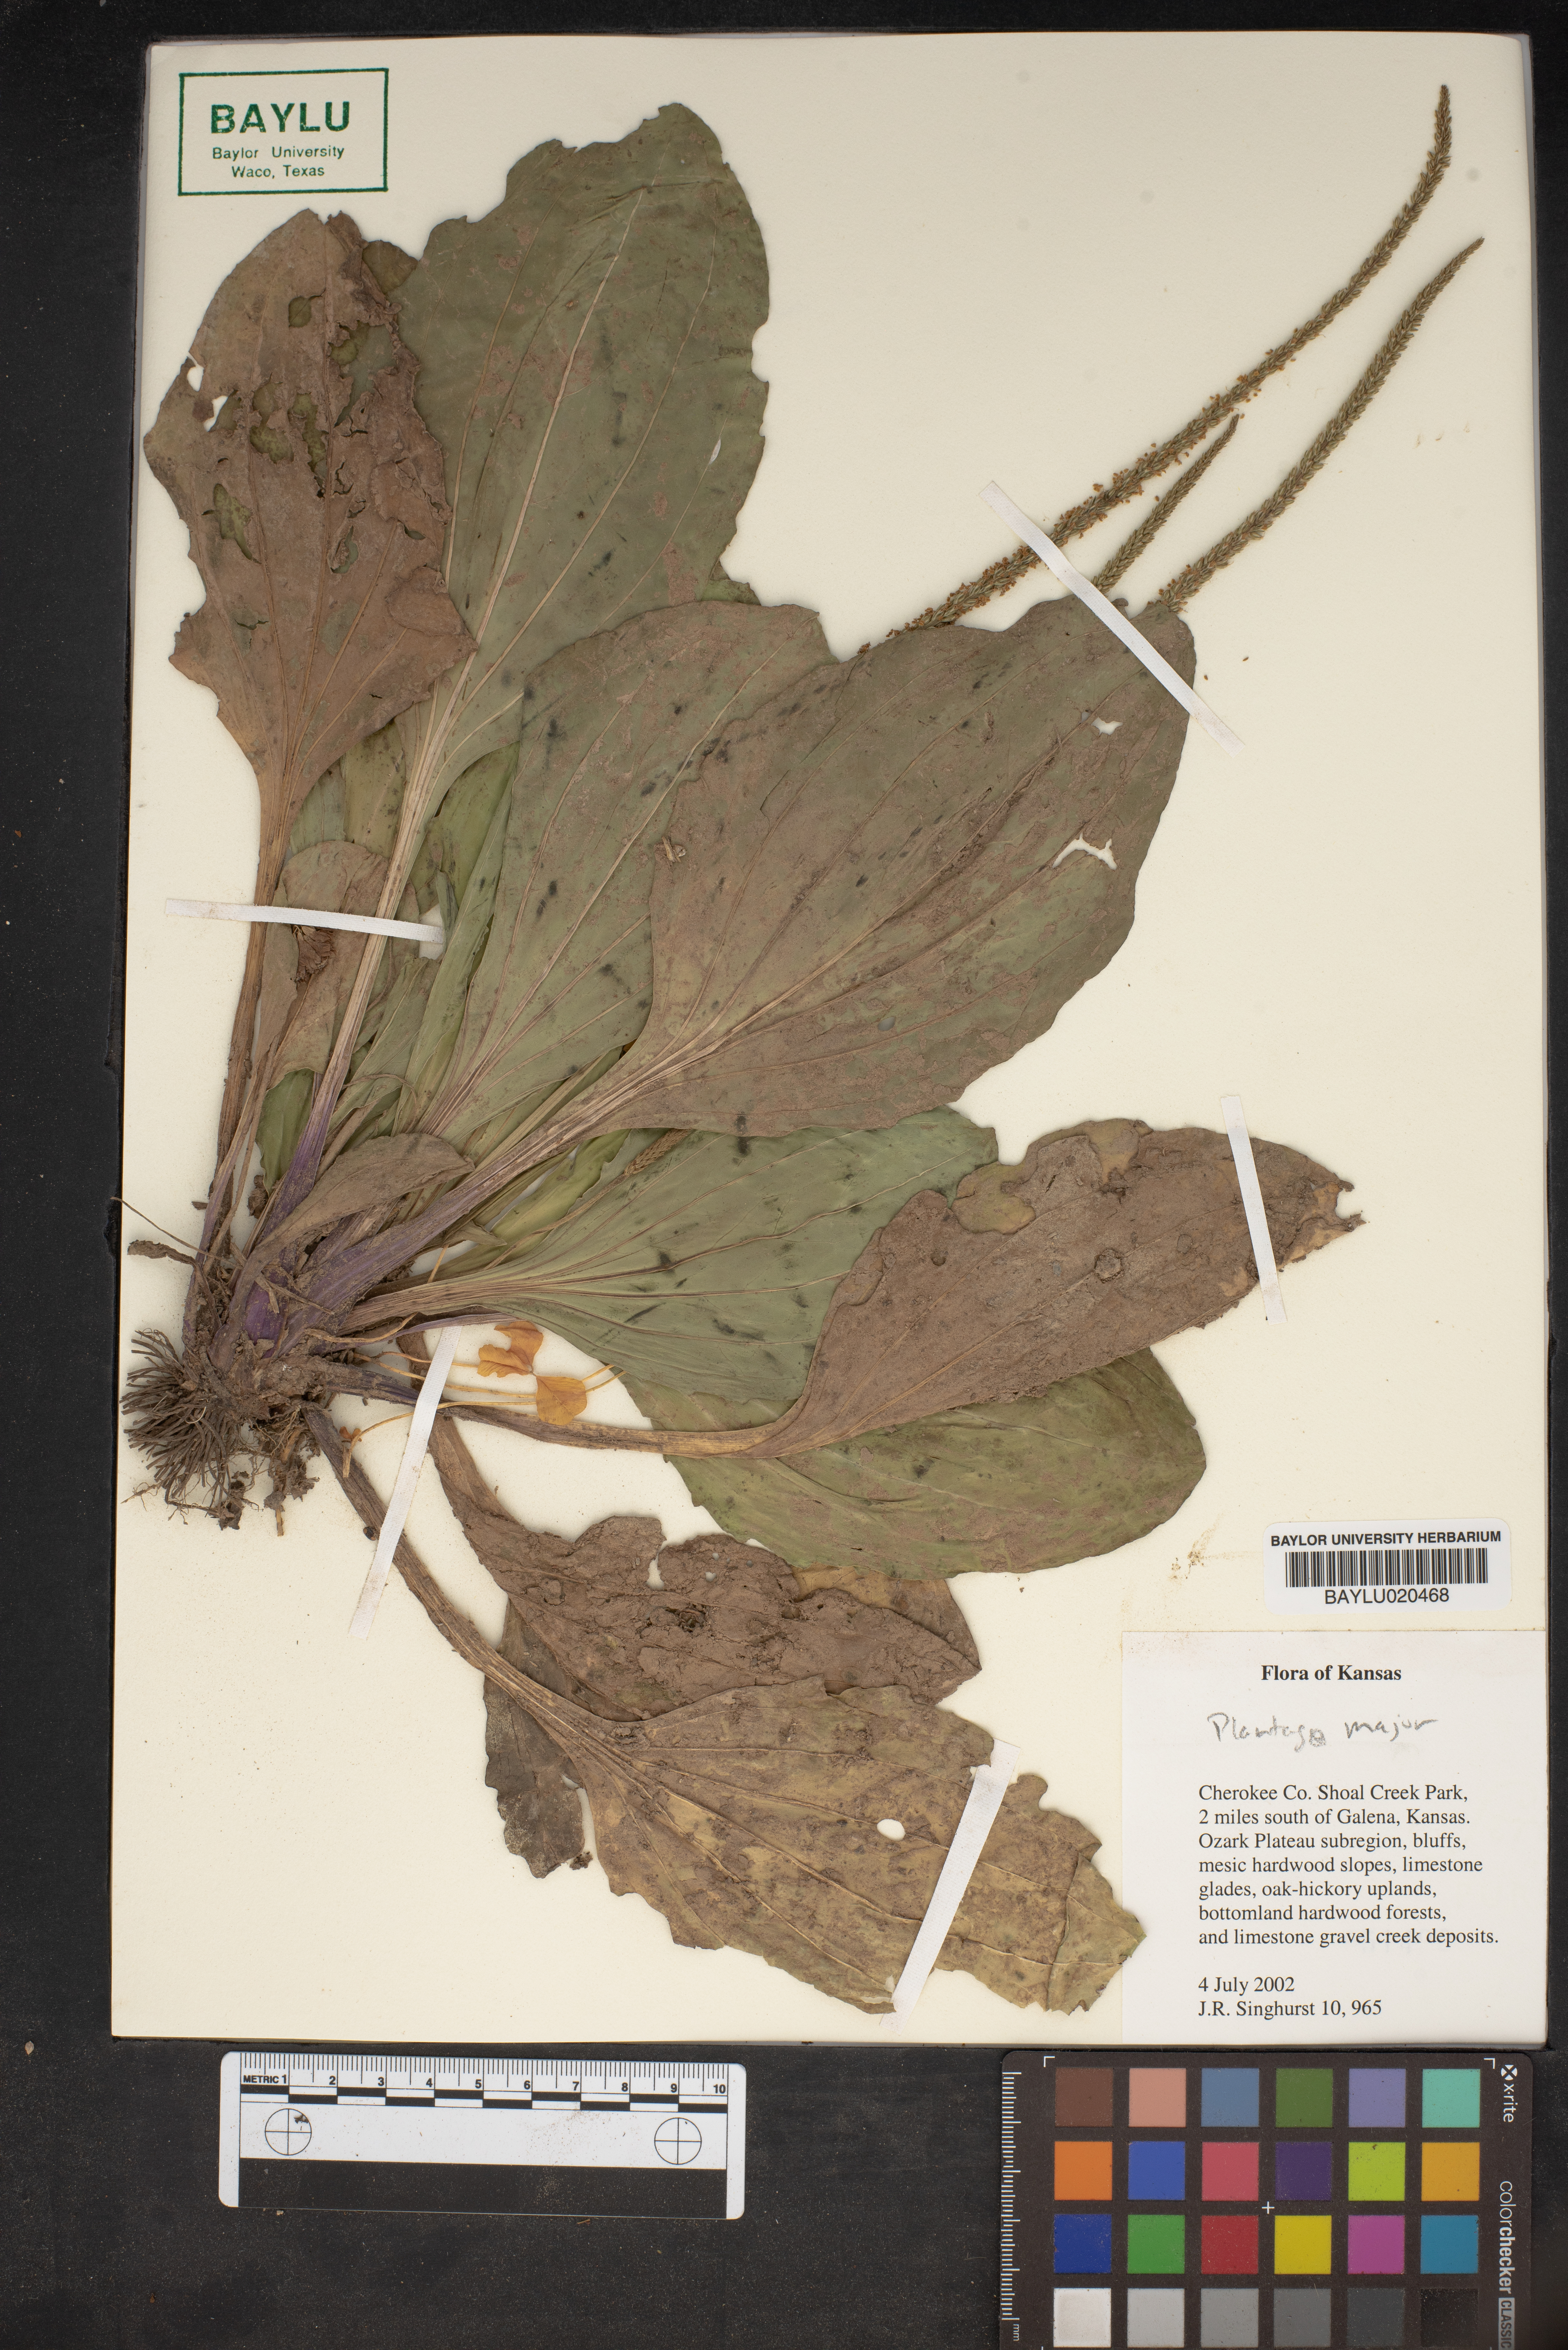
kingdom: Plantae
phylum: Tracheophyta
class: Magnoliopsida
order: Lamiales
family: Plantaginaceae
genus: Plantago
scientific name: Plantago major
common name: Common plantain
